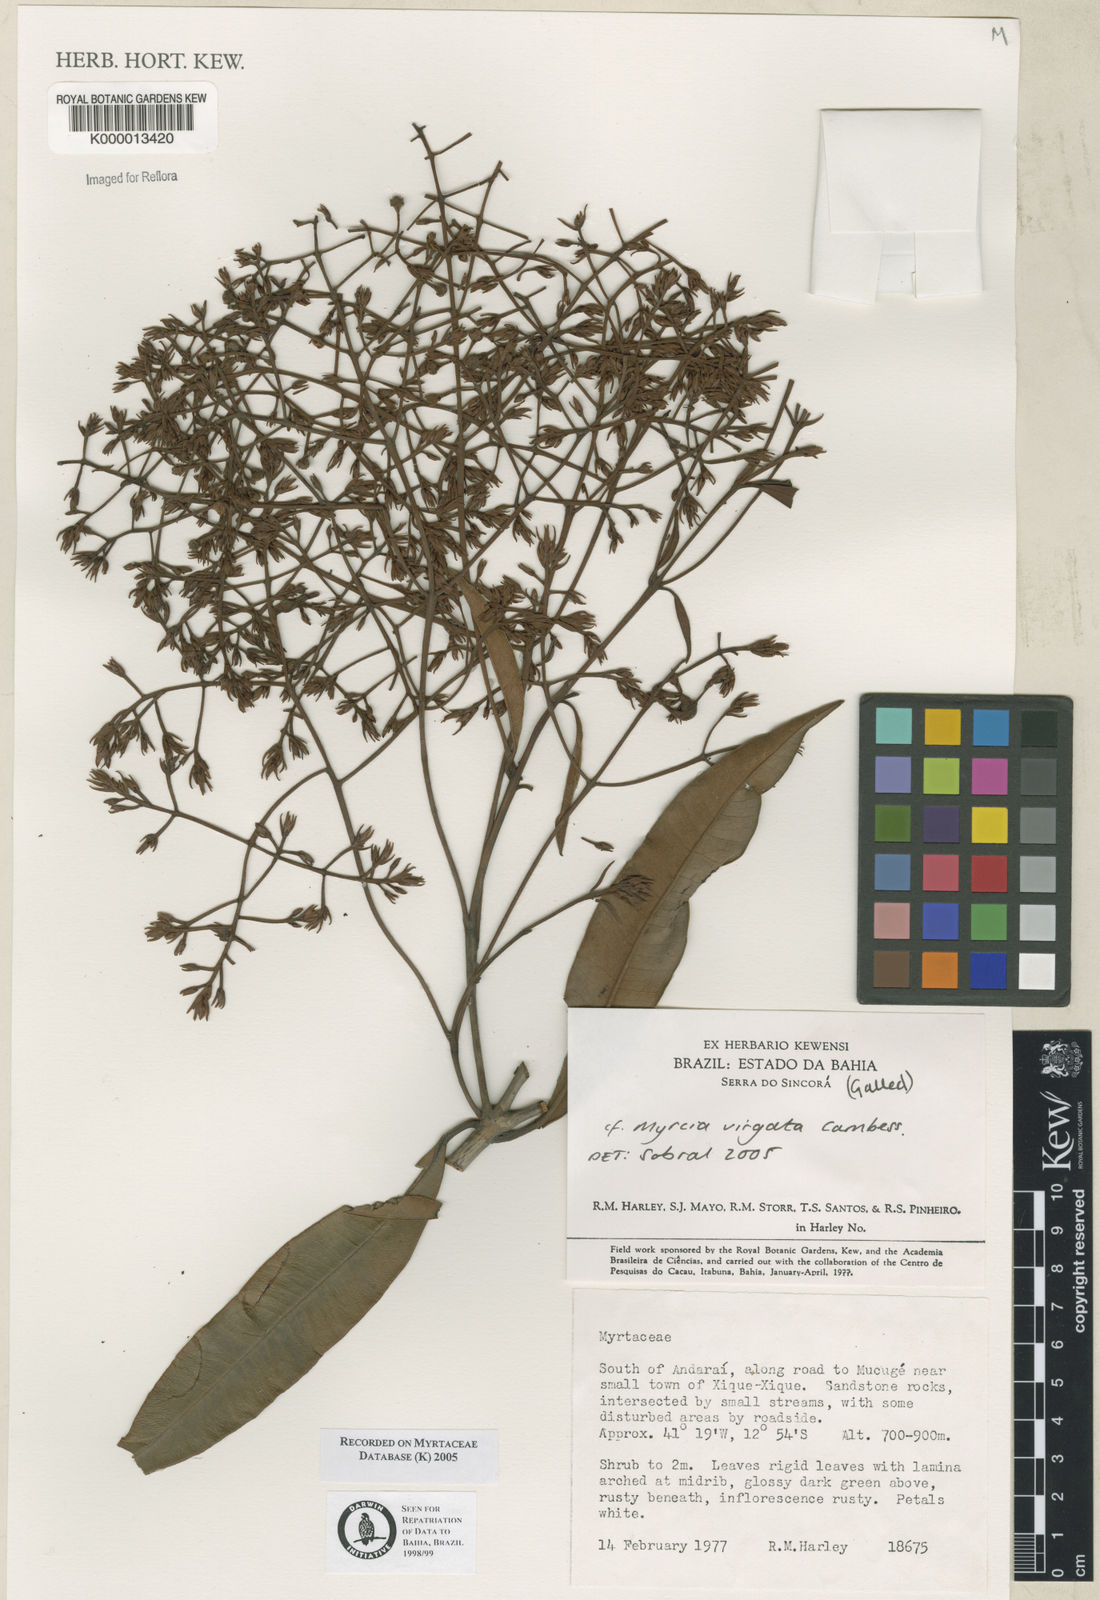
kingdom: Plantae
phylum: Tracheophyta
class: Magnoliopsida
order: Myrtales
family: Myrtaceae
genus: Myrcia
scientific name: Myrcia
